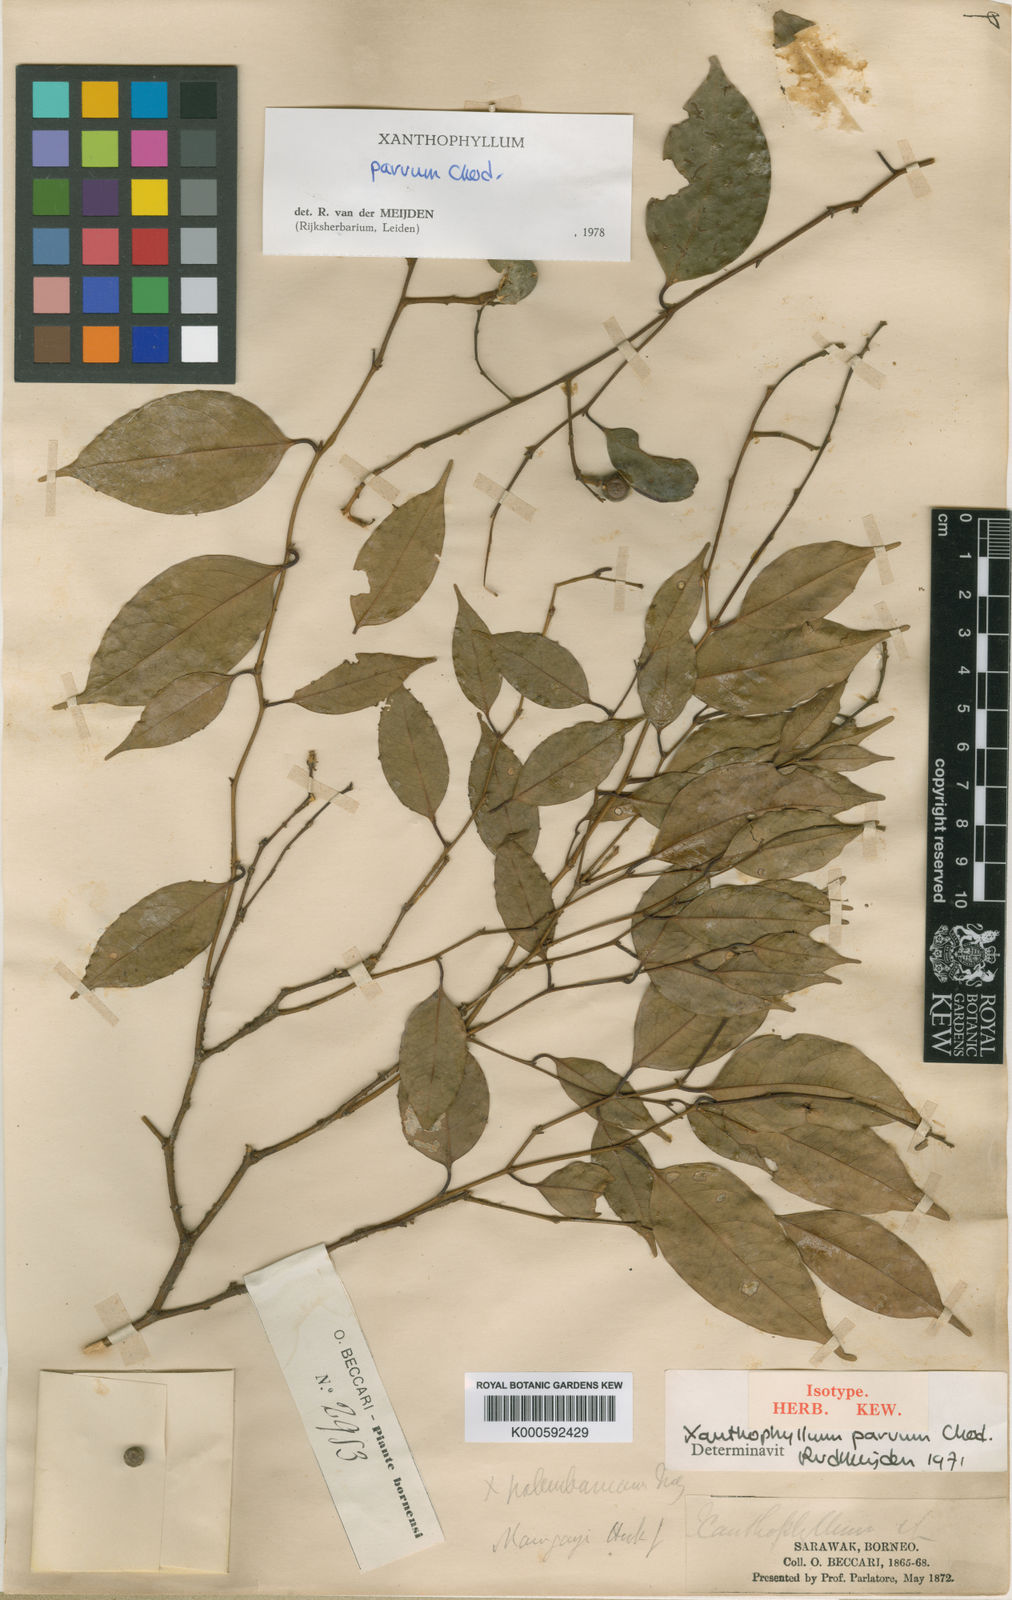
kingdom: Plantae
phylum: Tracheophyta
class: Magnoliopsida
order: Fabales
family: Polygalaceae
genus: Xanthophyllum
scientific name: Xanthophyllum griffithii
